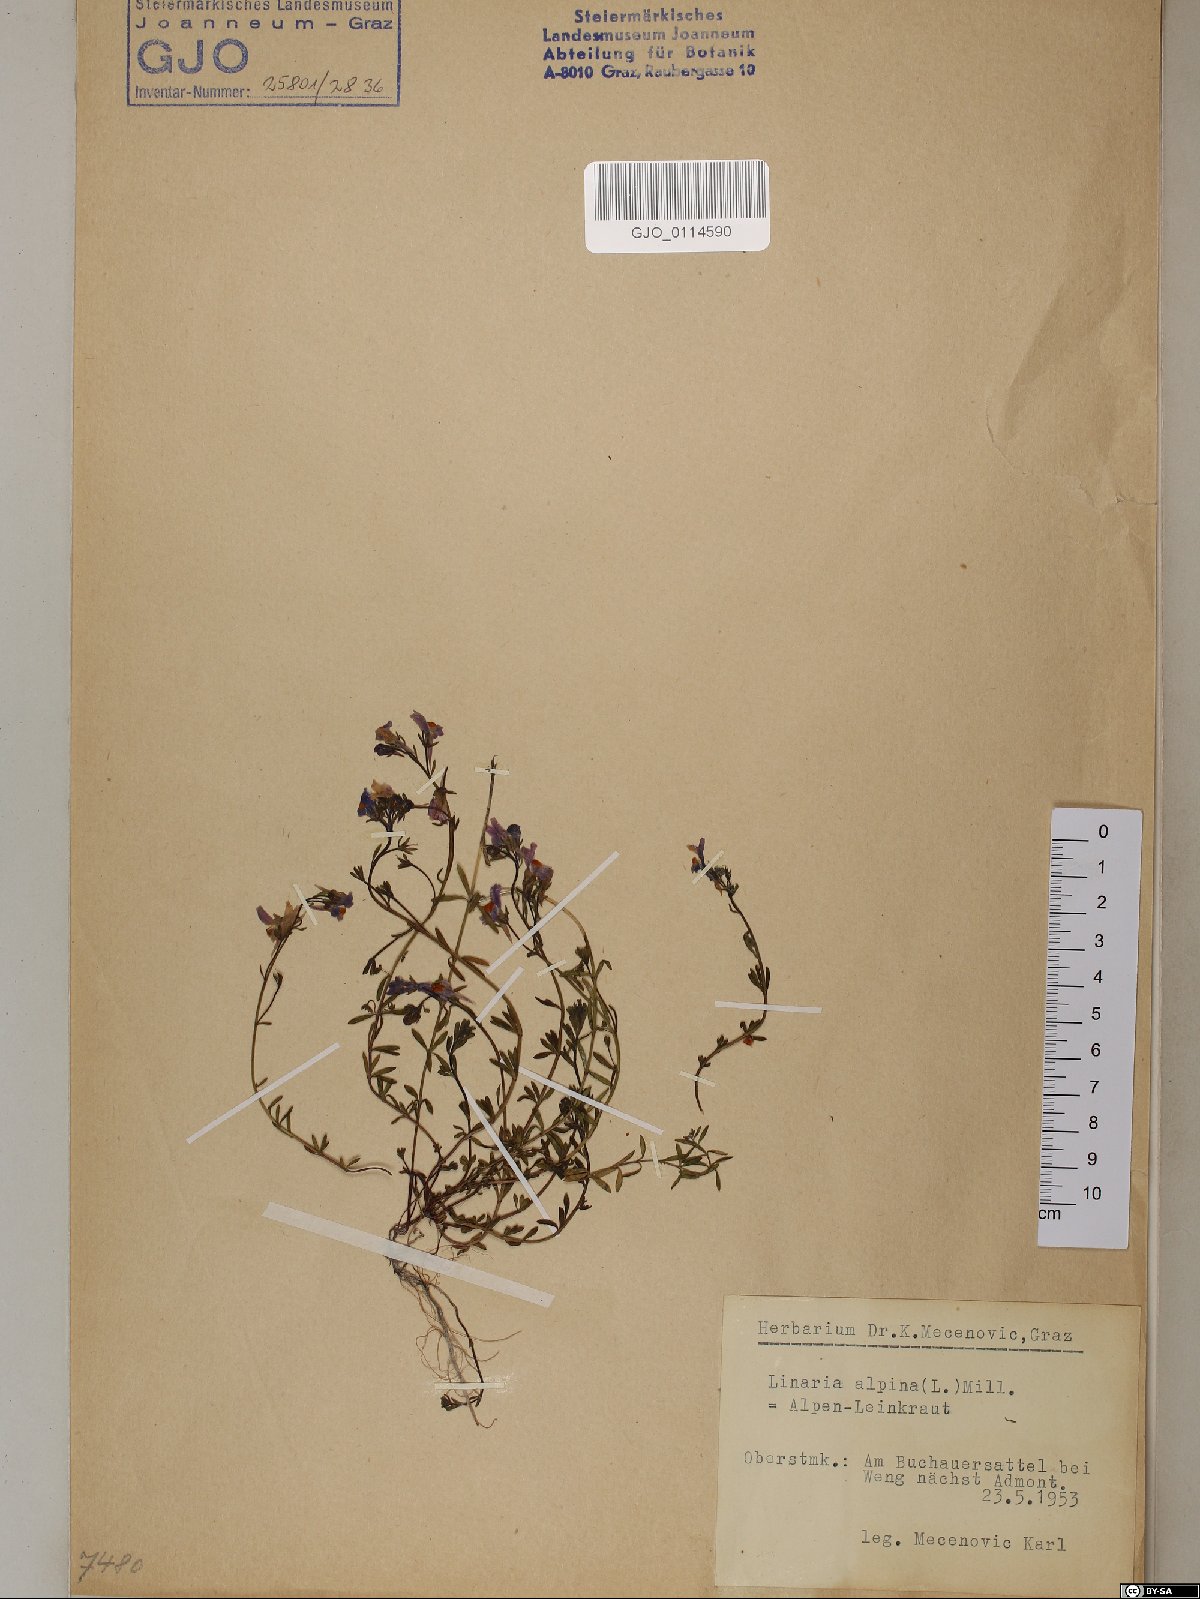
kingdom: Plantae
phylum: Tracheophyta
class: Magnoliopsida
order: Lamiales
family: Plantaginaceae
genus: Linaria
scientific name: Linaria alpina
